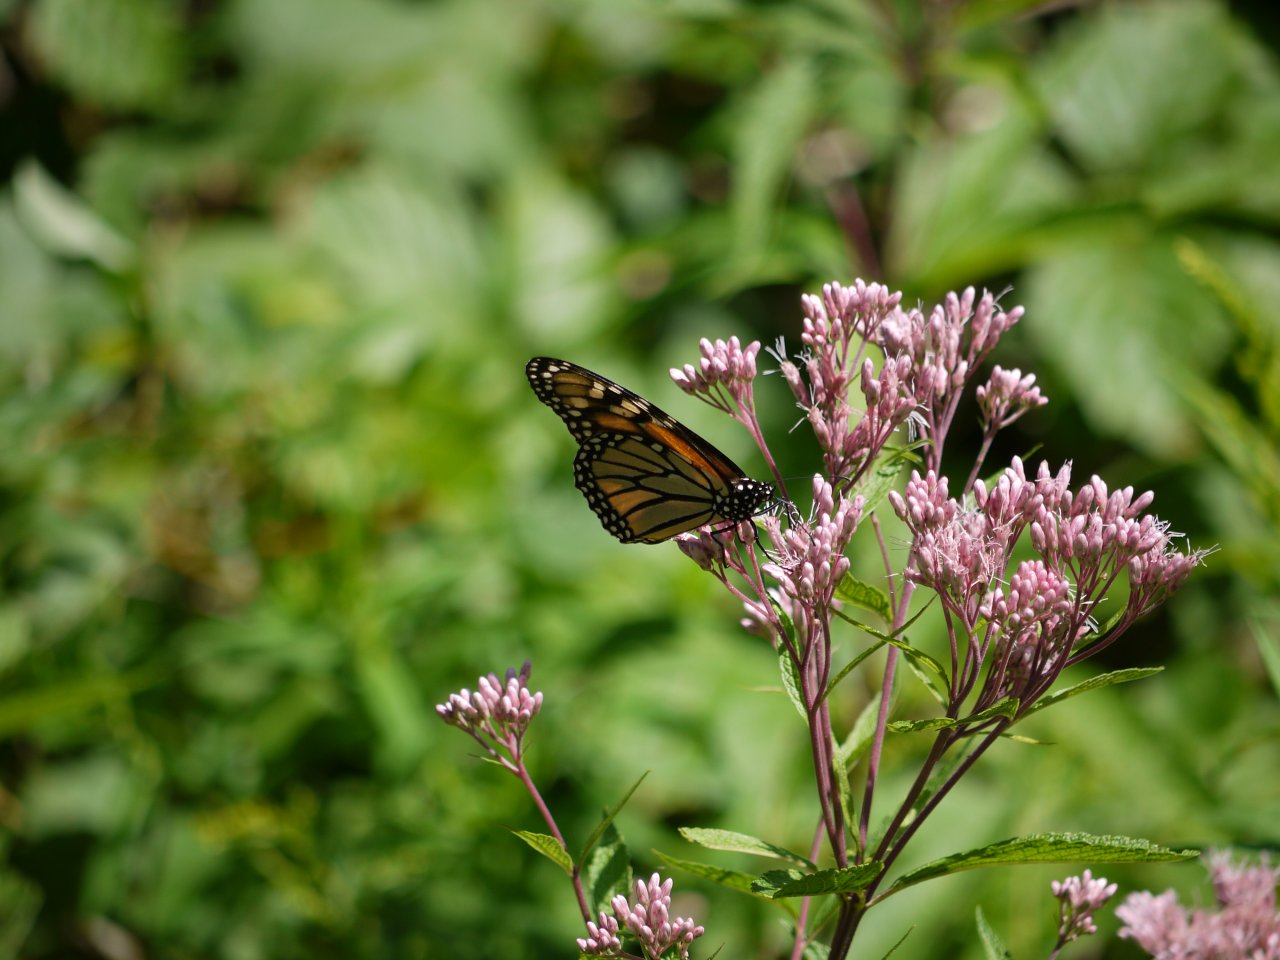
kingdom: Animalia
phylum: Arthropoda
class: Insecta
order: Lepidoptera
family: Nymphalidae
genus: Danaus
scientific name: Danaus plexippus
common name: Monarch
